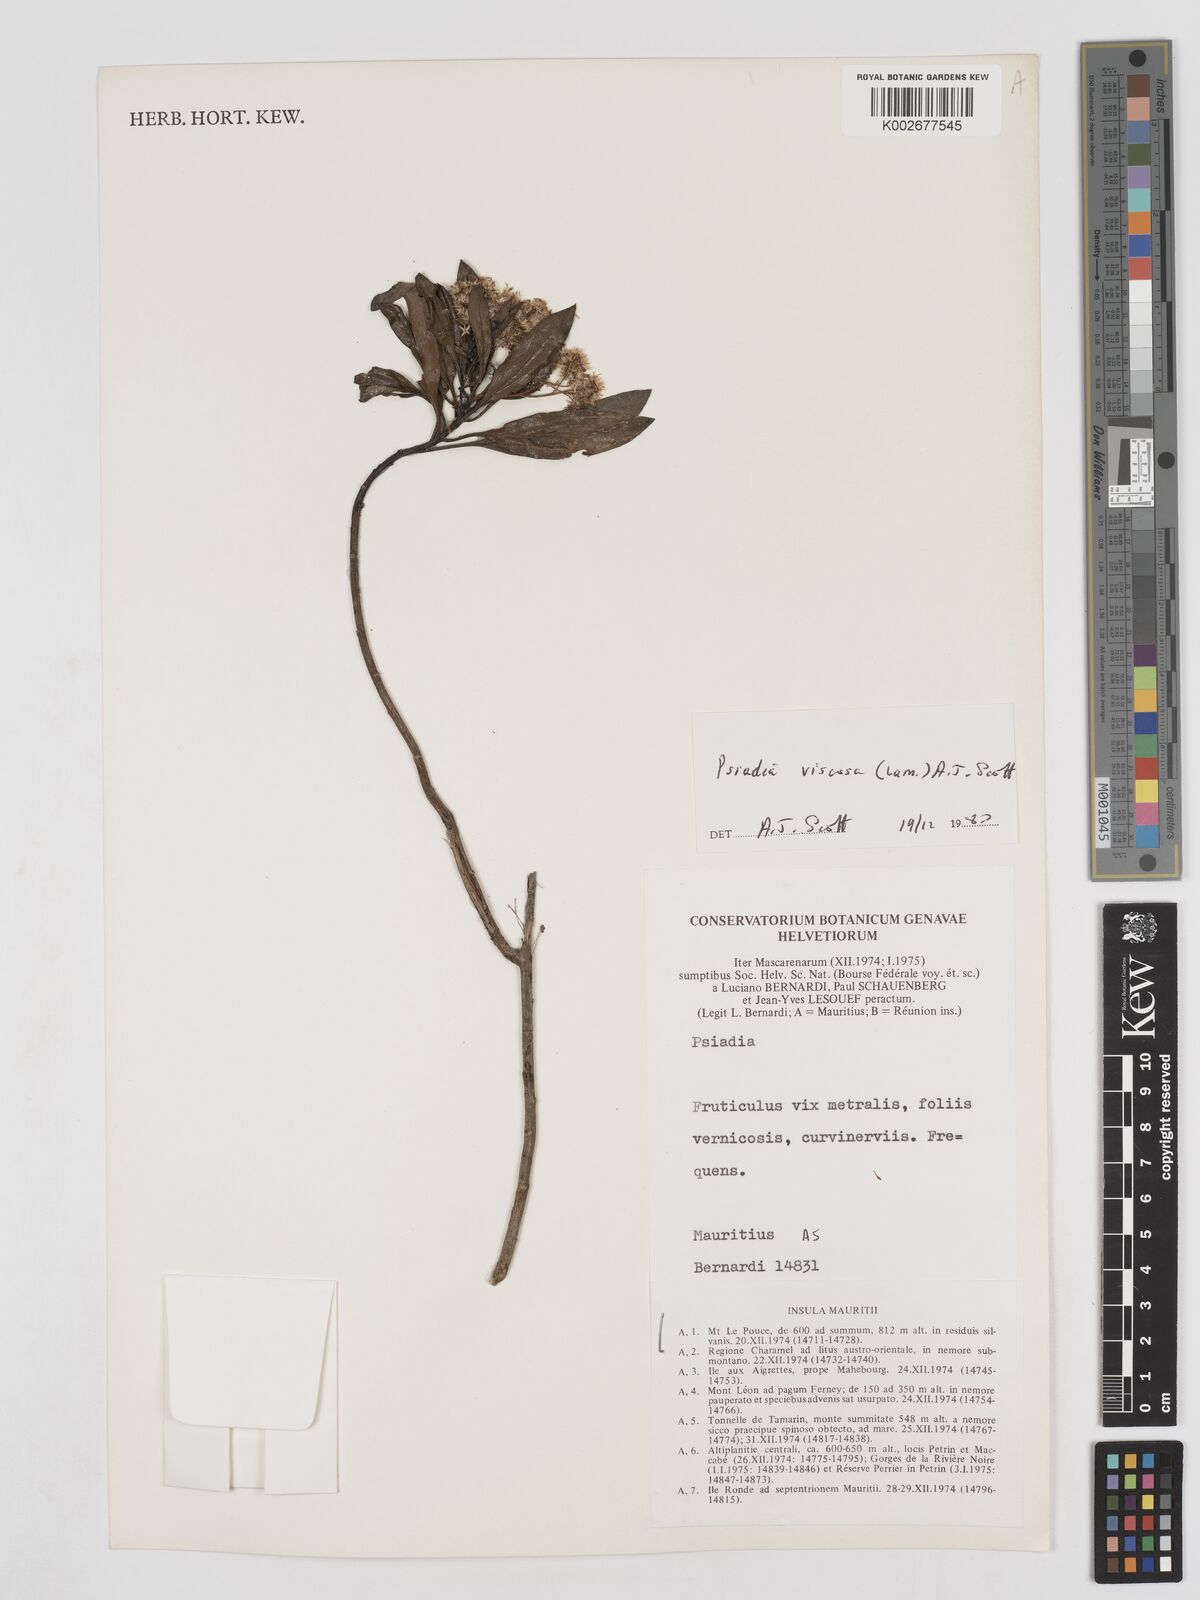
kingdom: Plantae
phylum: Tracheophyta
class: Magnoliopsida
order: Asterales
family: Asteraceae
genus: Psiadia
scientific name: Psiadia viscosa
